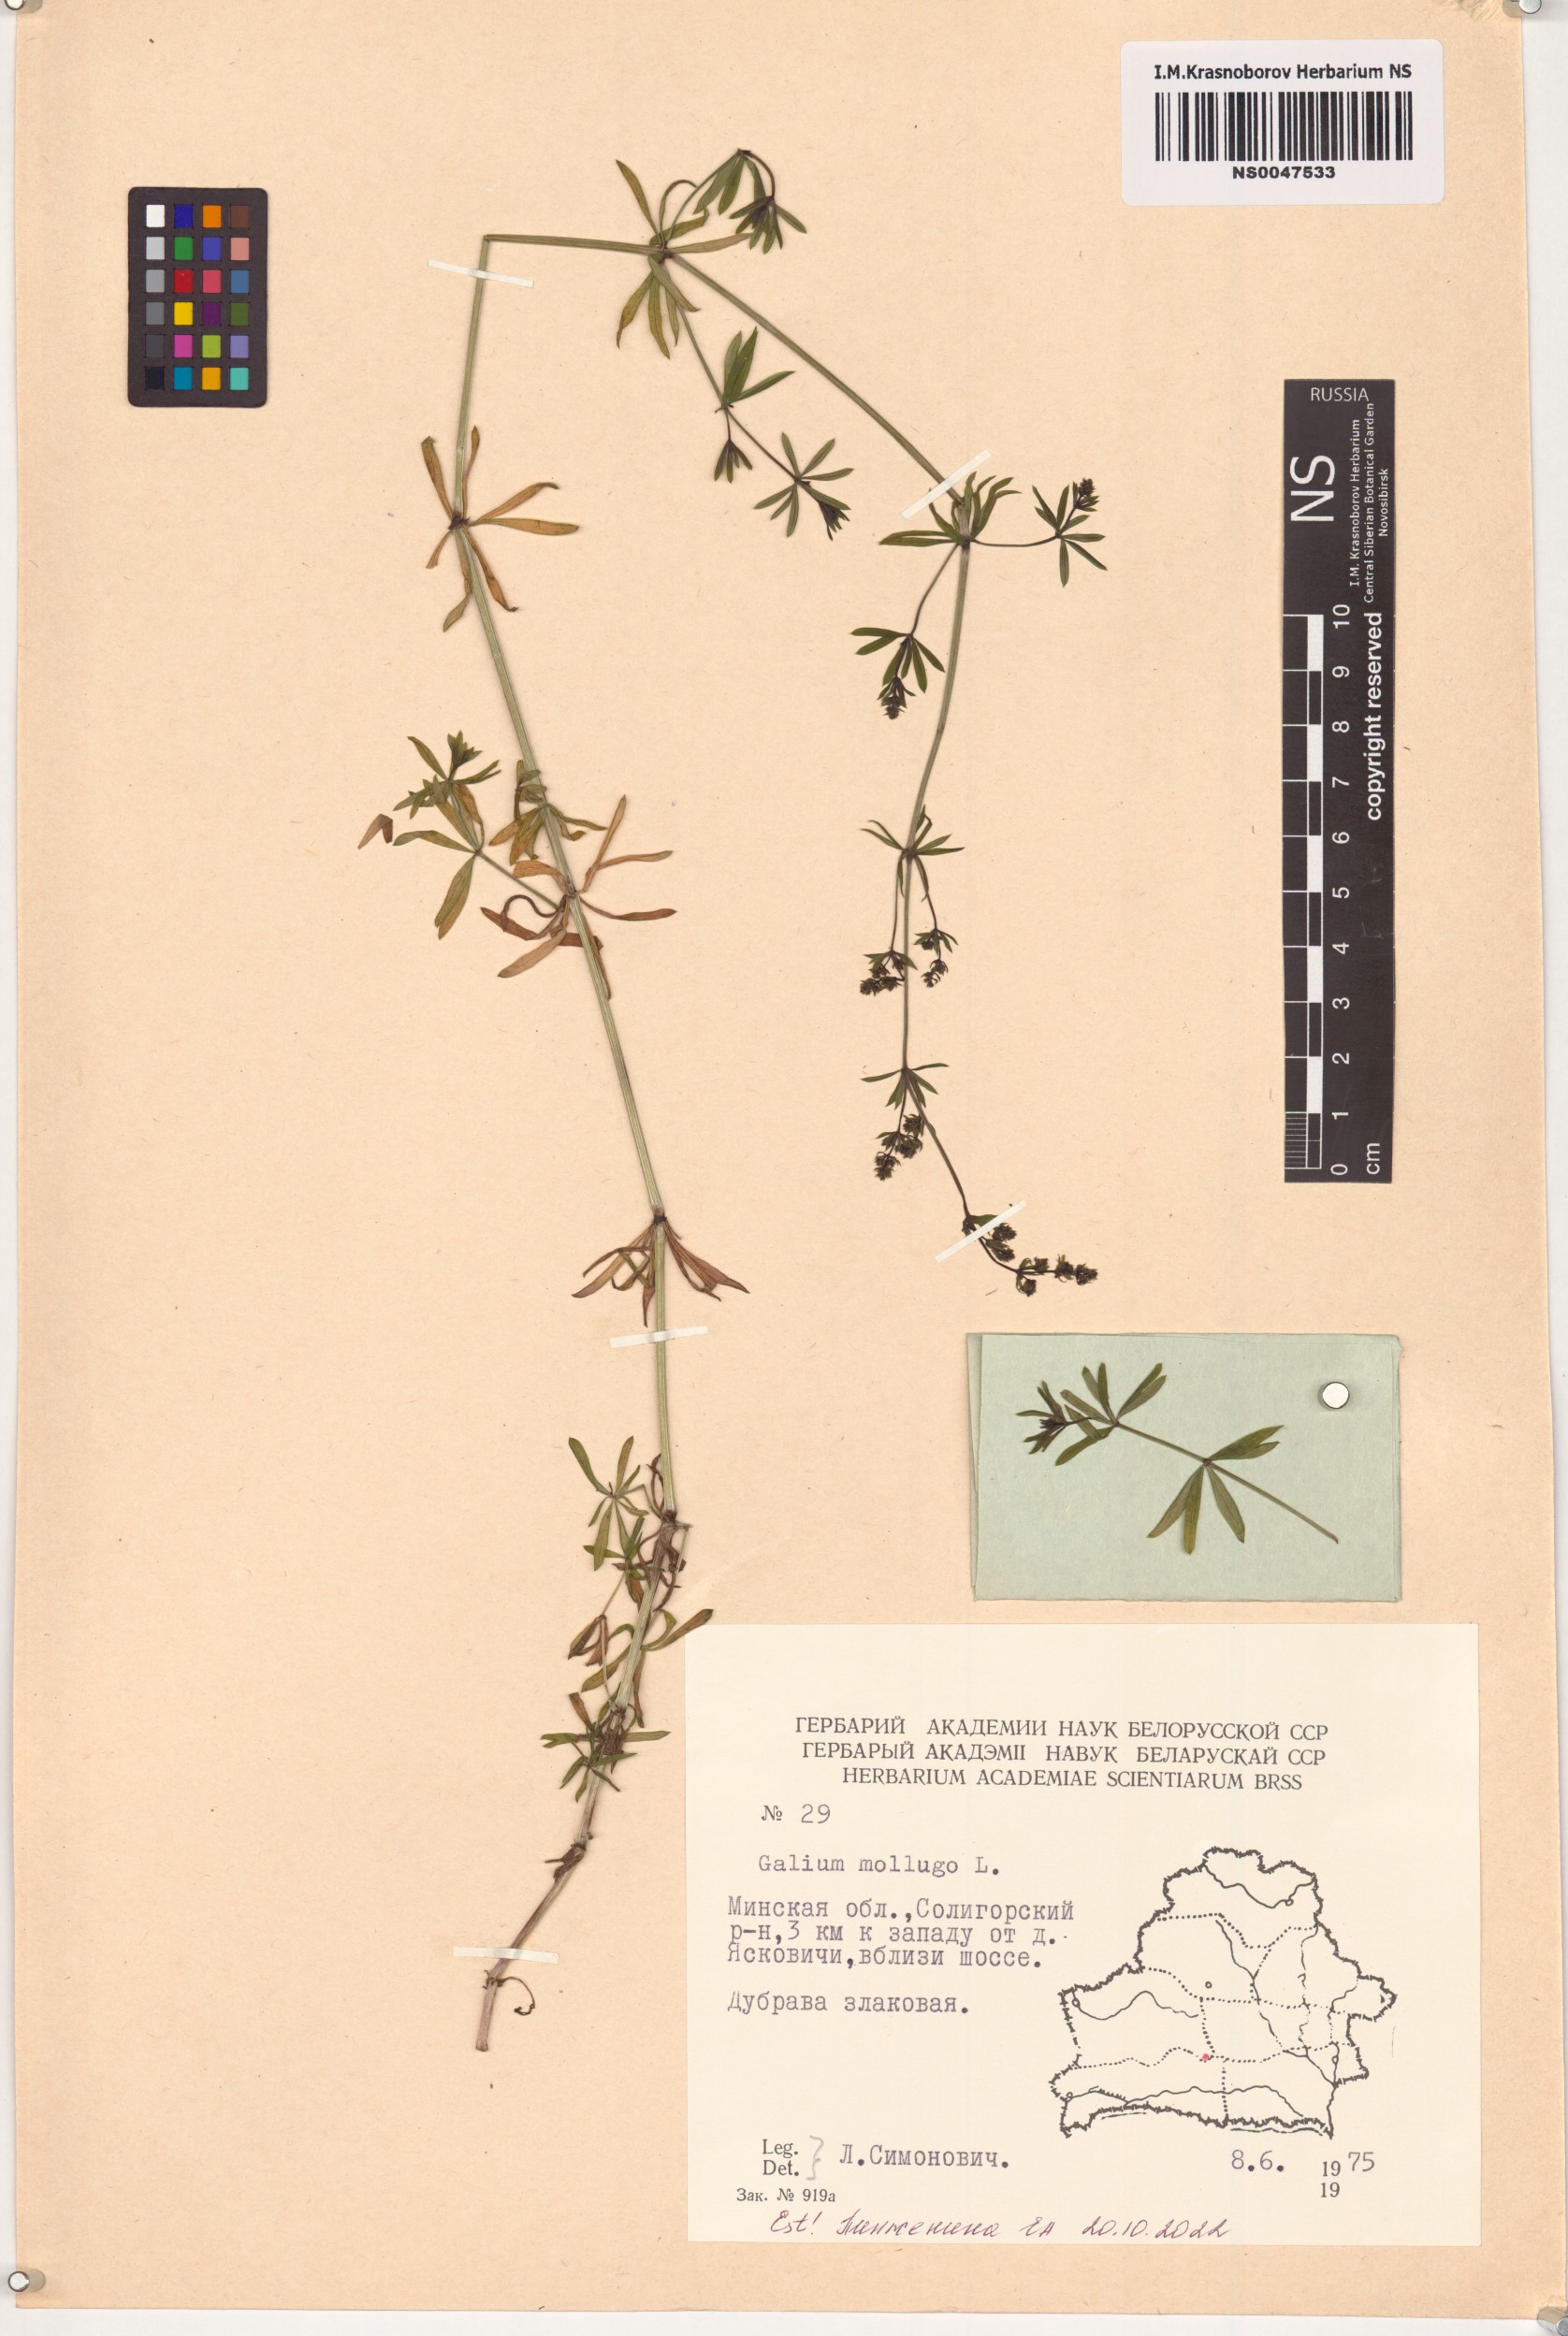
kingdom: Plantae
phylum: Tracheophyta
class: Magnoliopsida
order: Gentianales
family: Rubiaceae
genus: Galium
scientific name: Galium mollugo
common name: Hedge bedstraw
